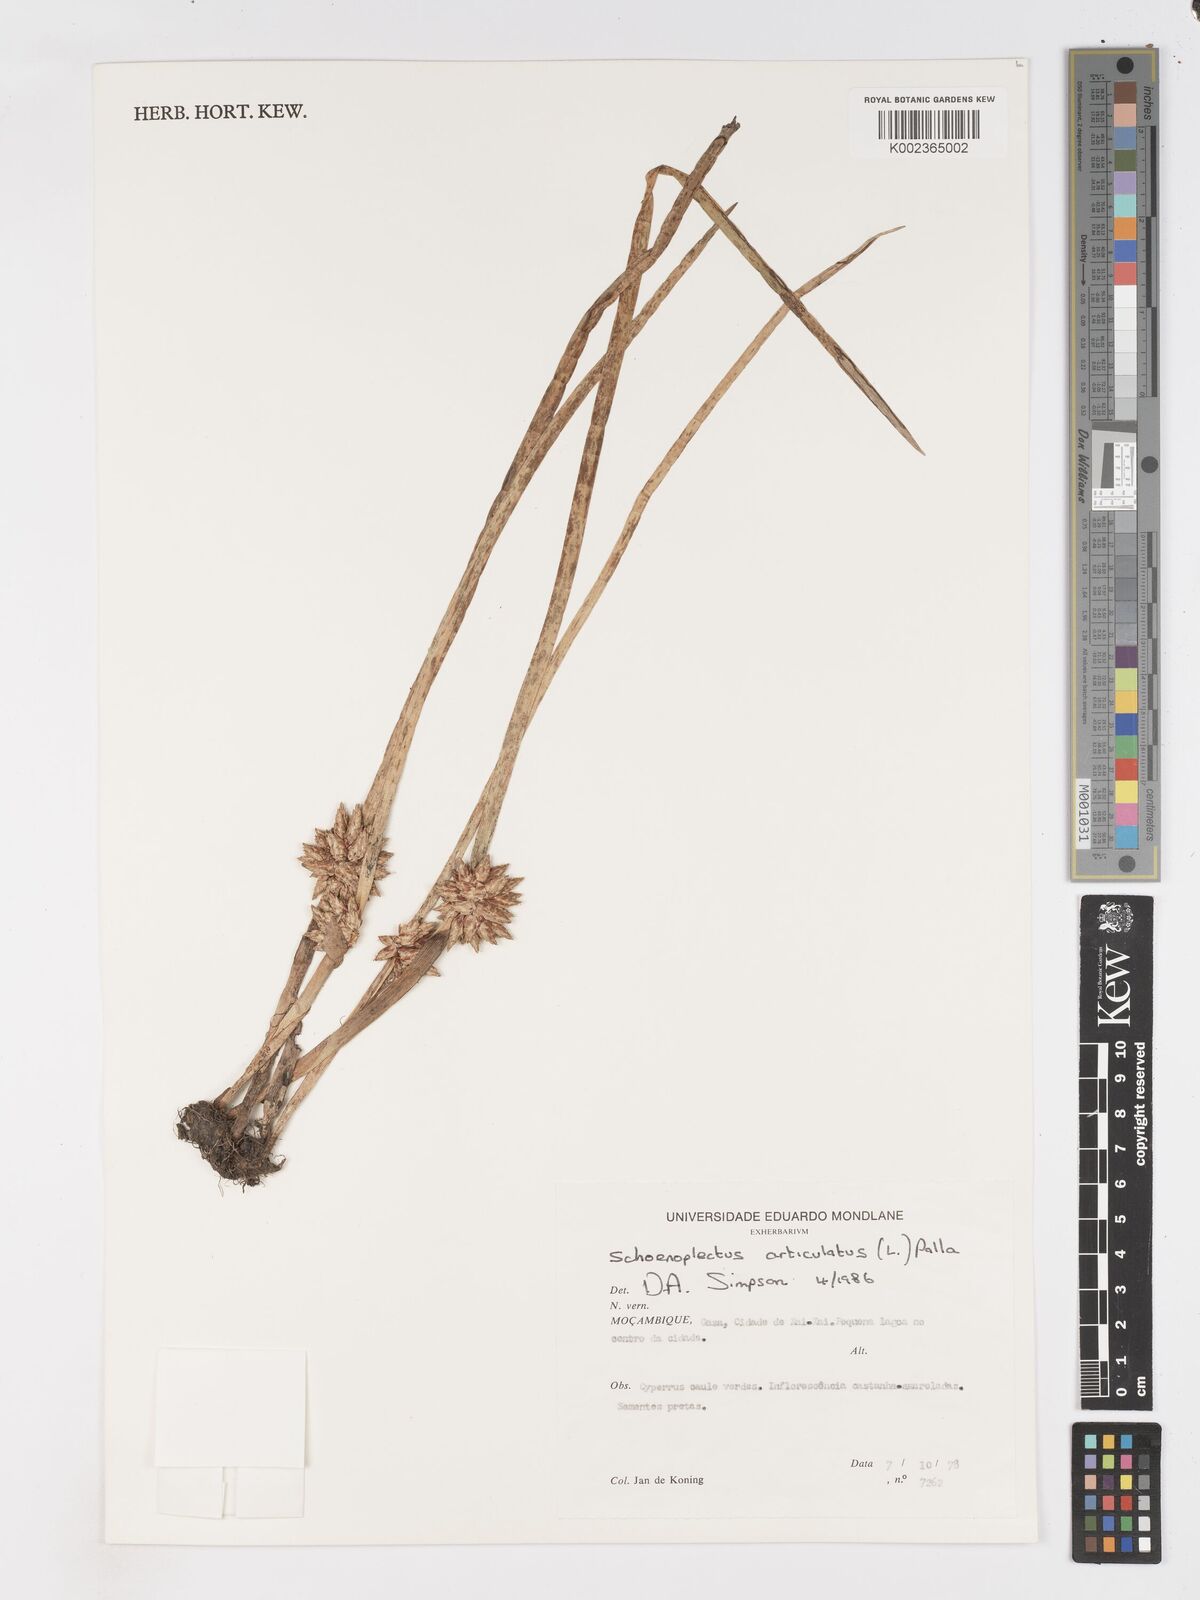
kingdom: Plantae
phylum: Tracheophyta
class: Liliopsida
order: Poales
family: Cyperaceae
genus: Schoenoplectiella
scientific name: Schoenoplectiella articulata
